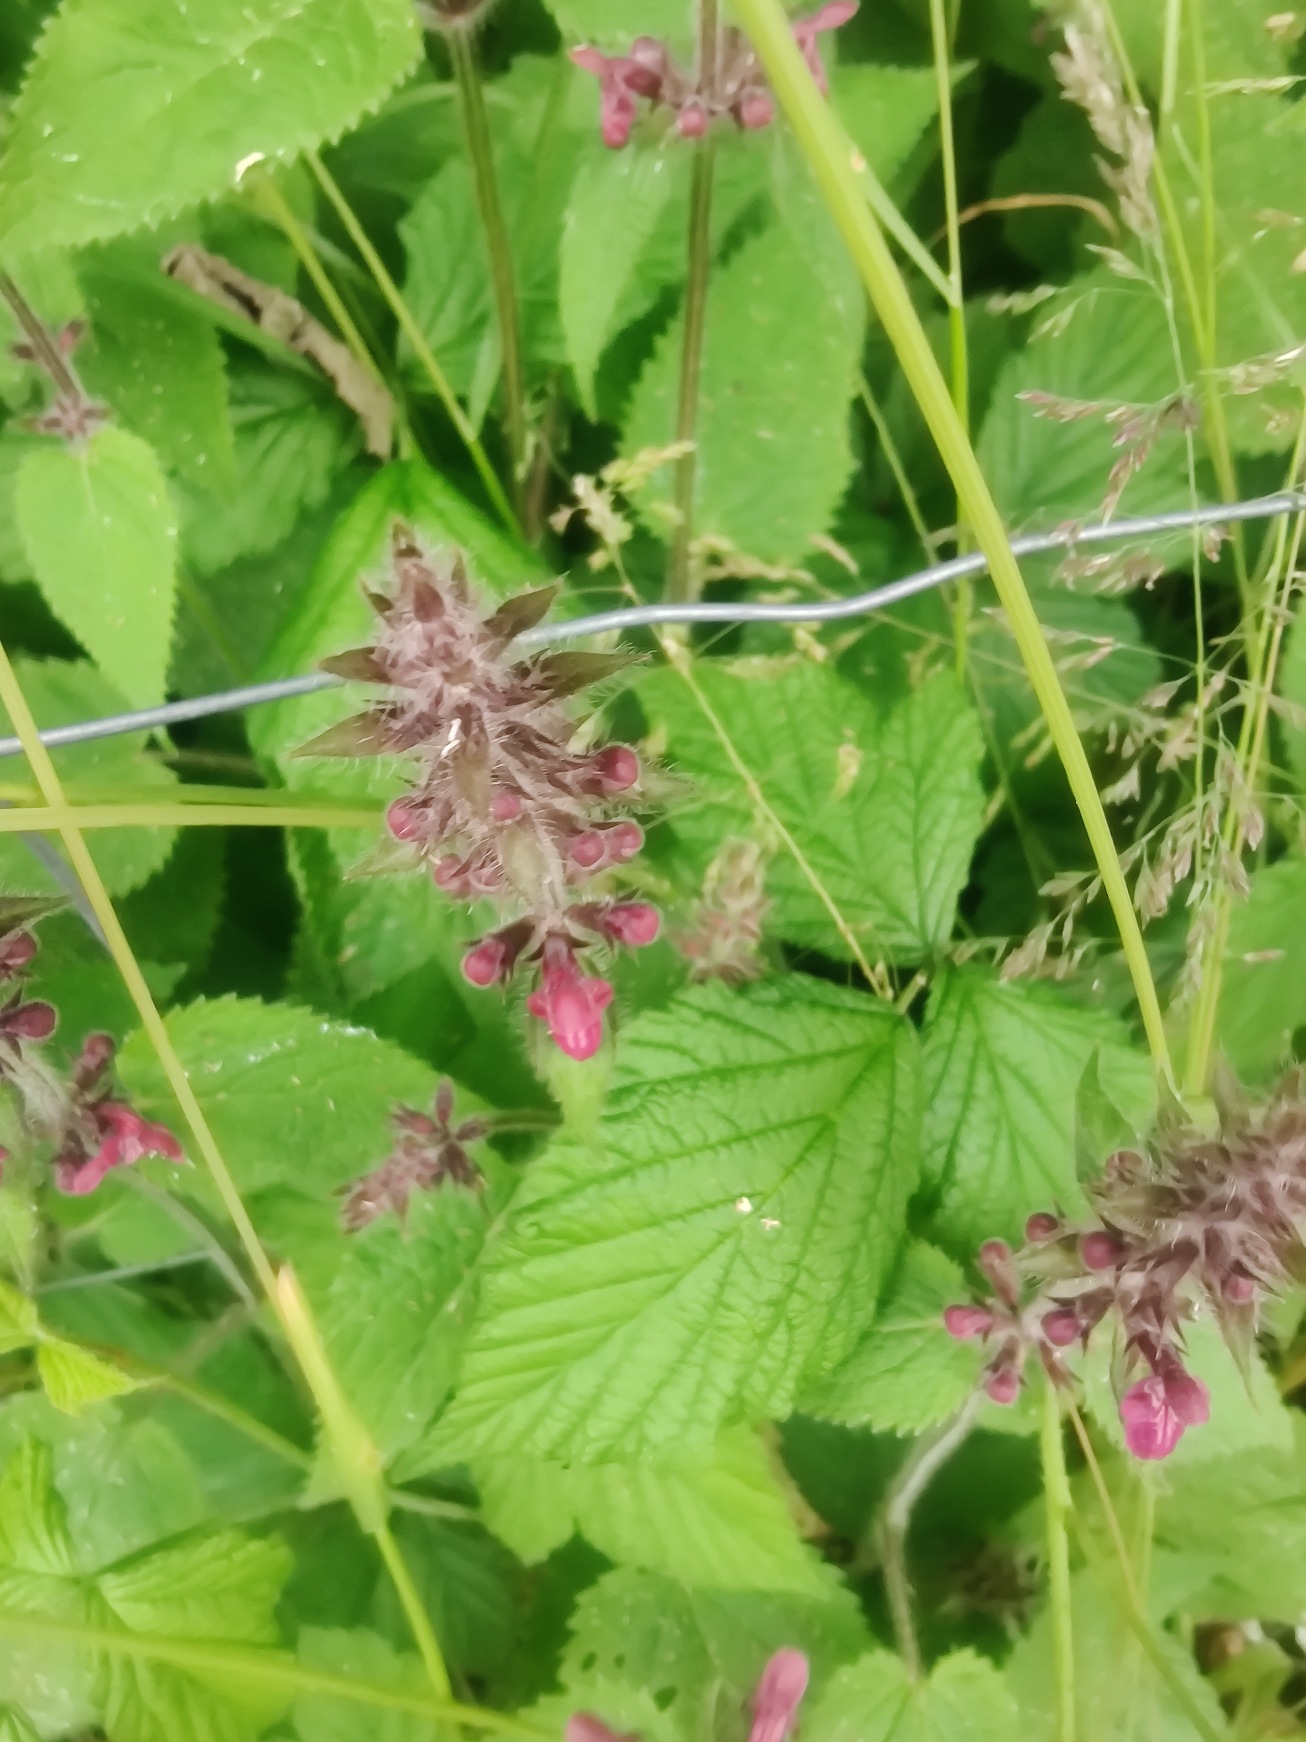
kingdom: Plantae
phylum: Tracheophyta
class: Magnoliopsida
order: Lamiales
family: Lamiaceae
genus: Stachys
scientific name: Stachys sylvatica
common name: Skov-galtetand
